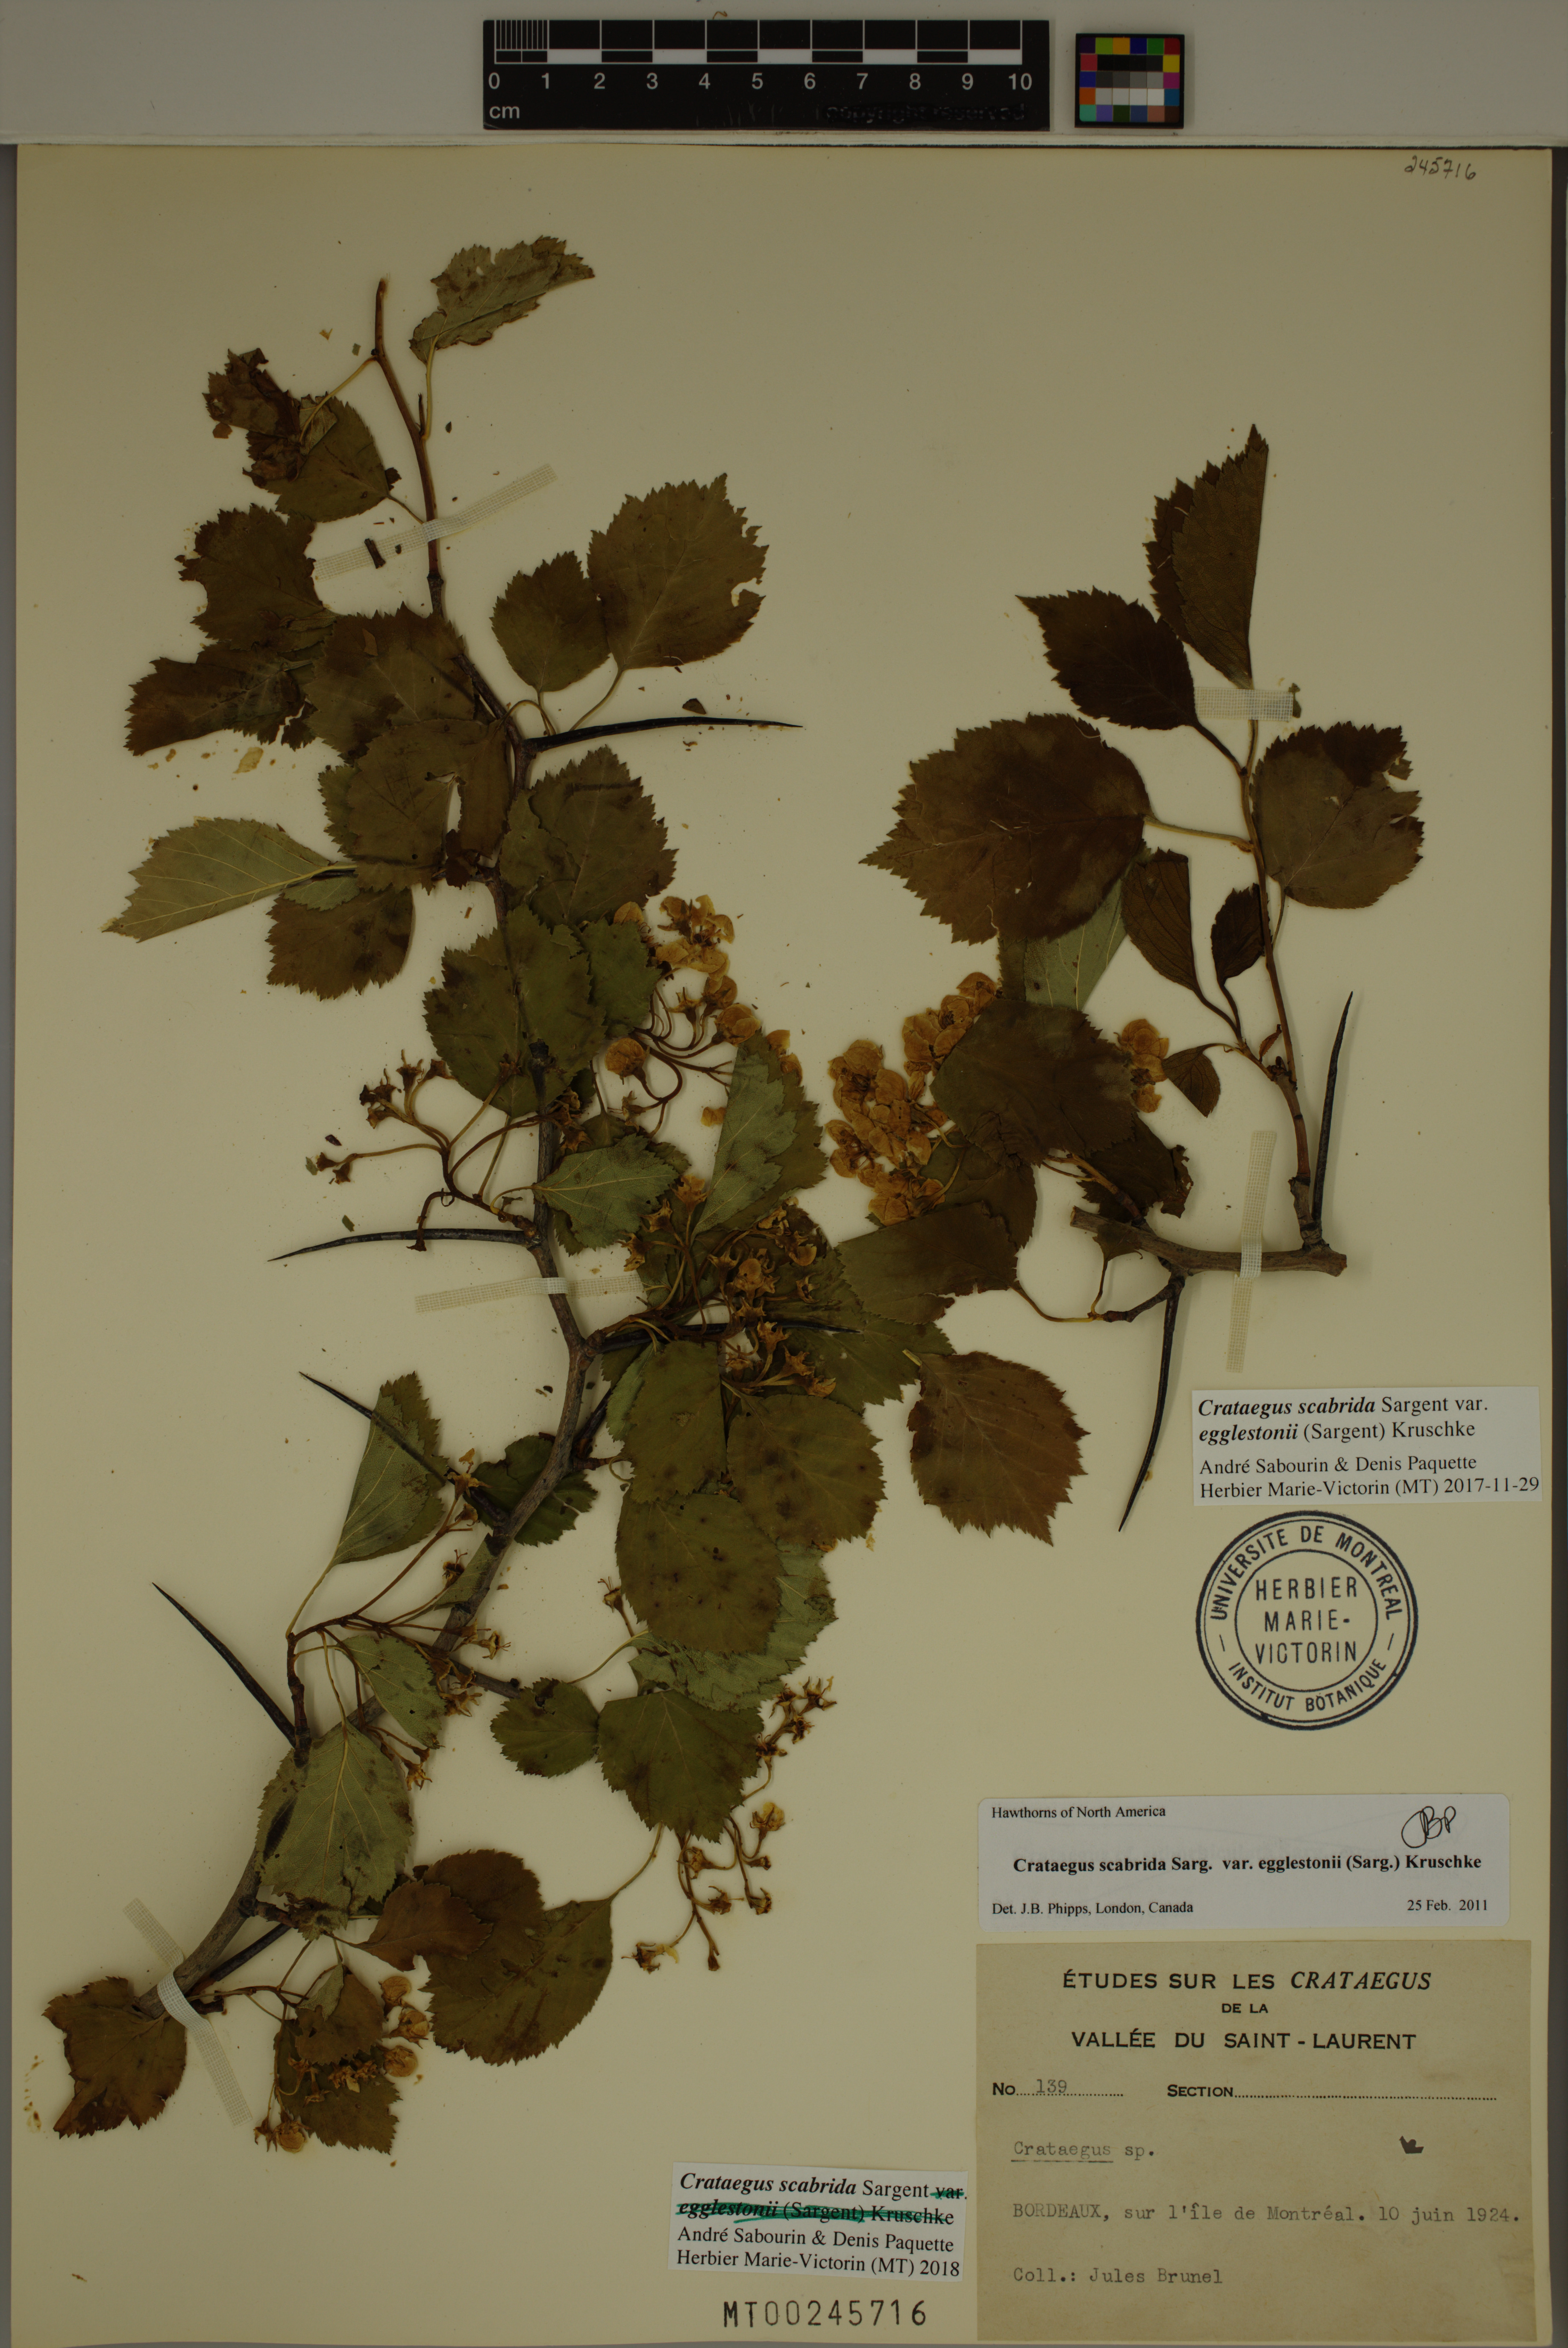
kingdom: Plantae
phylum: Tracheophyta
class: Magnoliopsida
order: Rosales
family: Rosaceae
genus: Crataegus
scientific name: Crataegus scabrida
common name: Rough hawthorn
